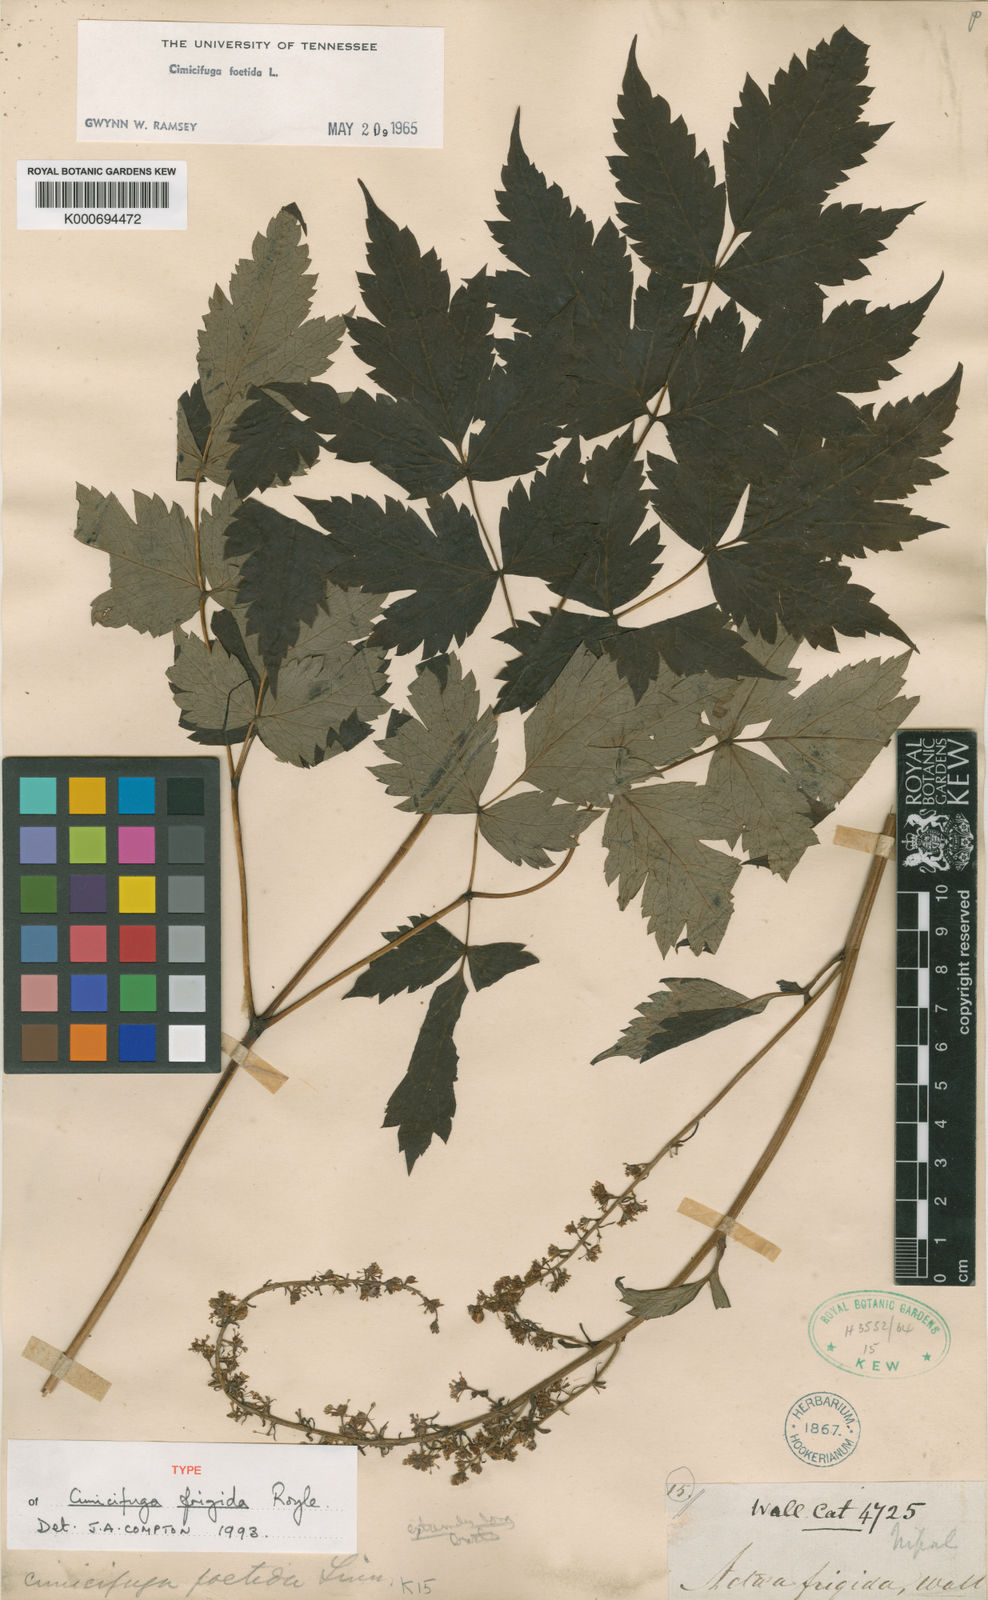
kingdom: Plantae
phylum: Tracheophyta
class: Magnoliopsida
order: Ranunculales
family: Ranunculaceae
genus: Actaea
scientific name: Actaea cimicifuga
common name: Chinese cimicifuga
